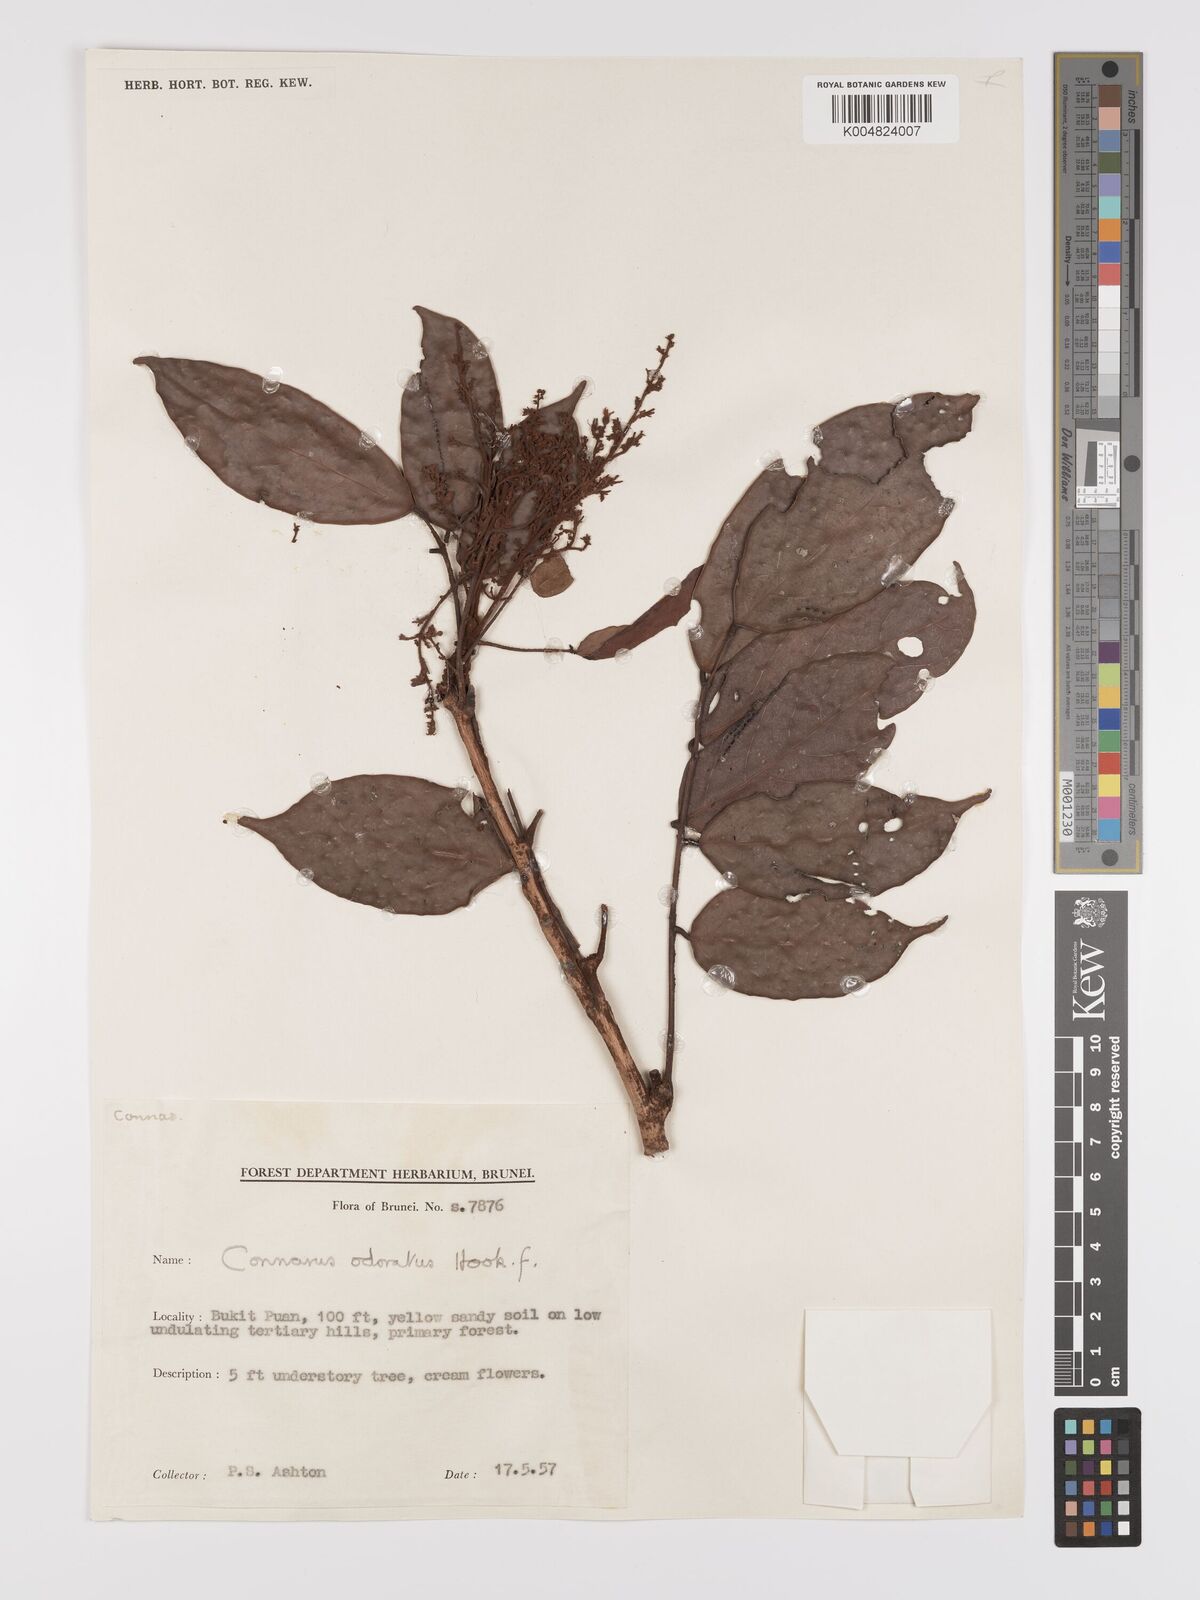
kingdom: Plantae
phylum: Tracheophyta
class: Magnoliopsida
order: Oxalidales
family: Connaraceae
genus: Connarus
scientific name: Connarus odoratus
